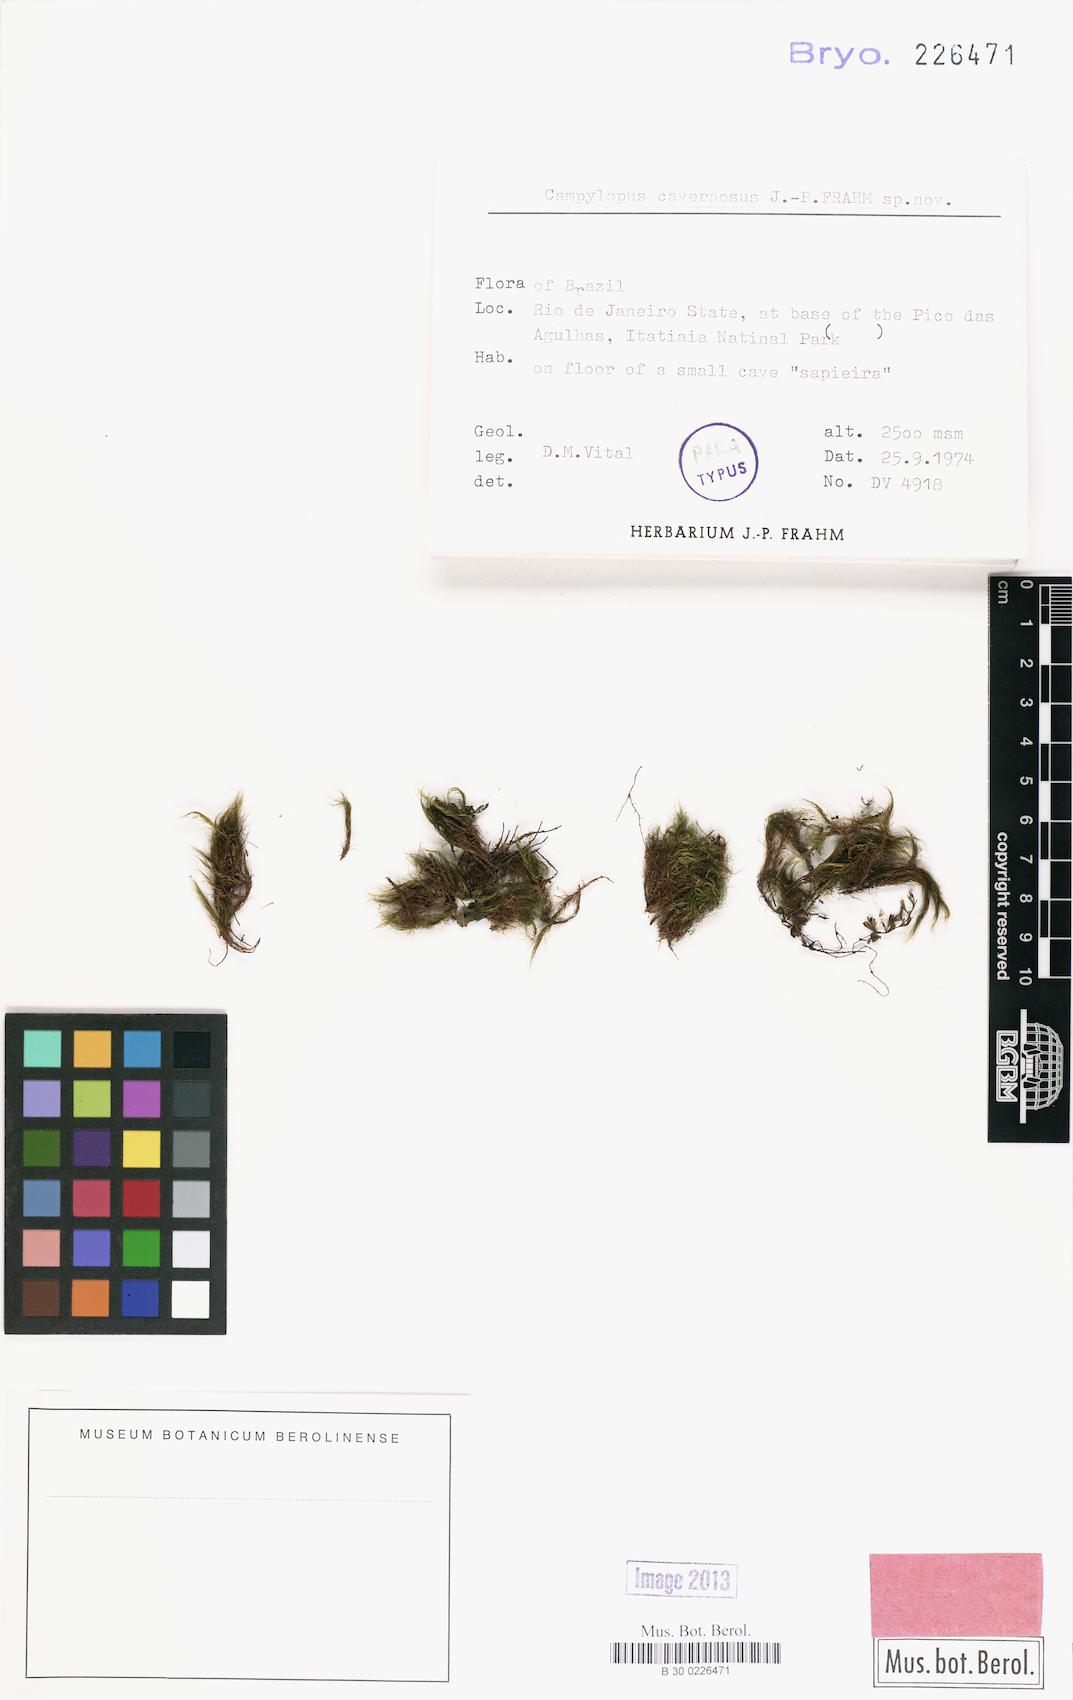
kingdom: Plantae
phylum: Bryophyta
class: Bryopsida
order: Dicranales
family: Leucobryaceae
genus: Campylopus
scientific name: Campylopus densicoma
